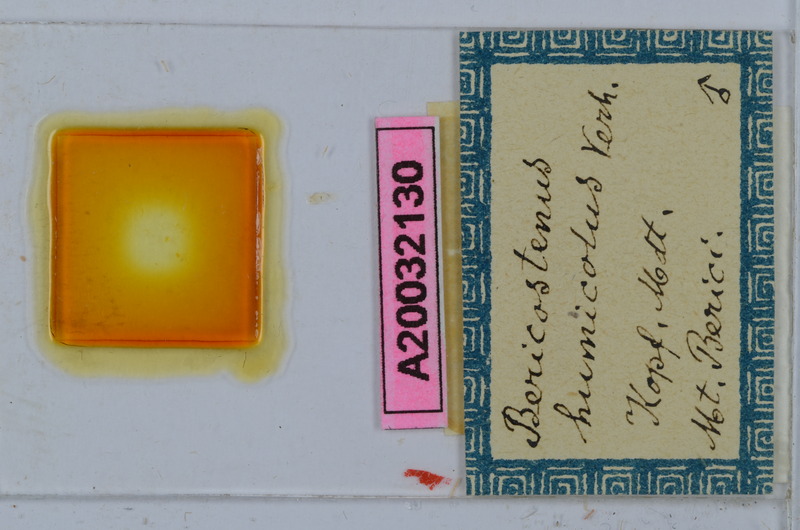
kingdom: Animalia
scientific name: Animalia
